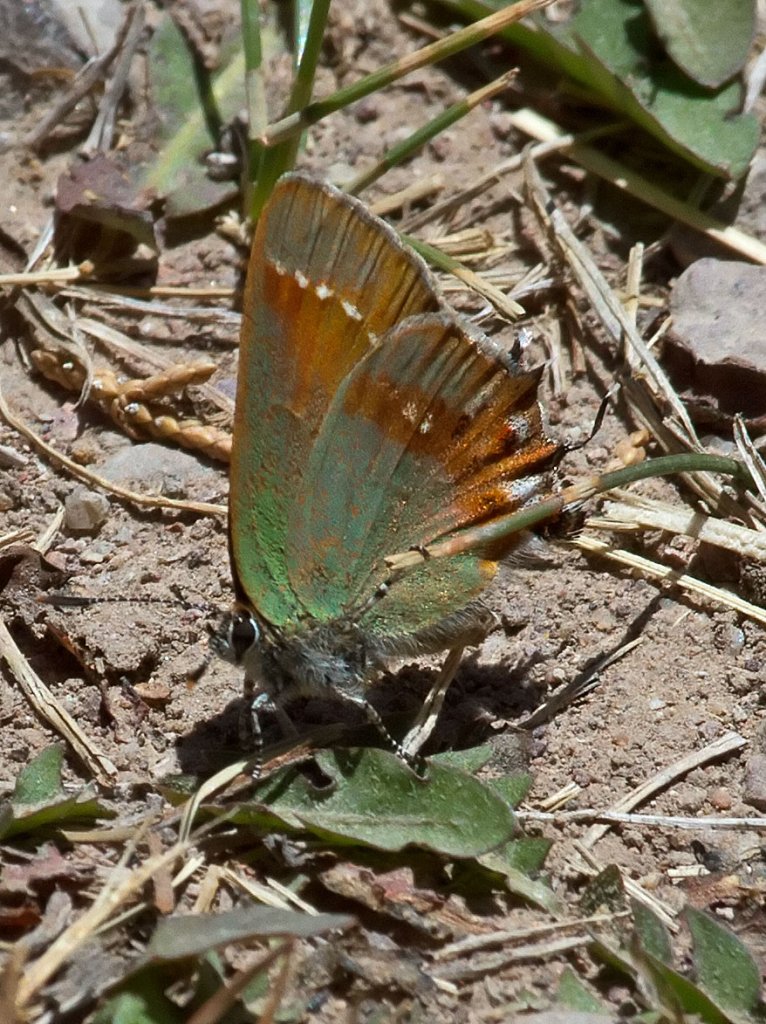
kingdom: Animalia
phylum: Arthropoda
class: Insecta
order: Lepidoptera
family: Lycaenidae
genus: Mitoura
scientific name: Mitoura gryneus
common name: Juniper Hairstreak
